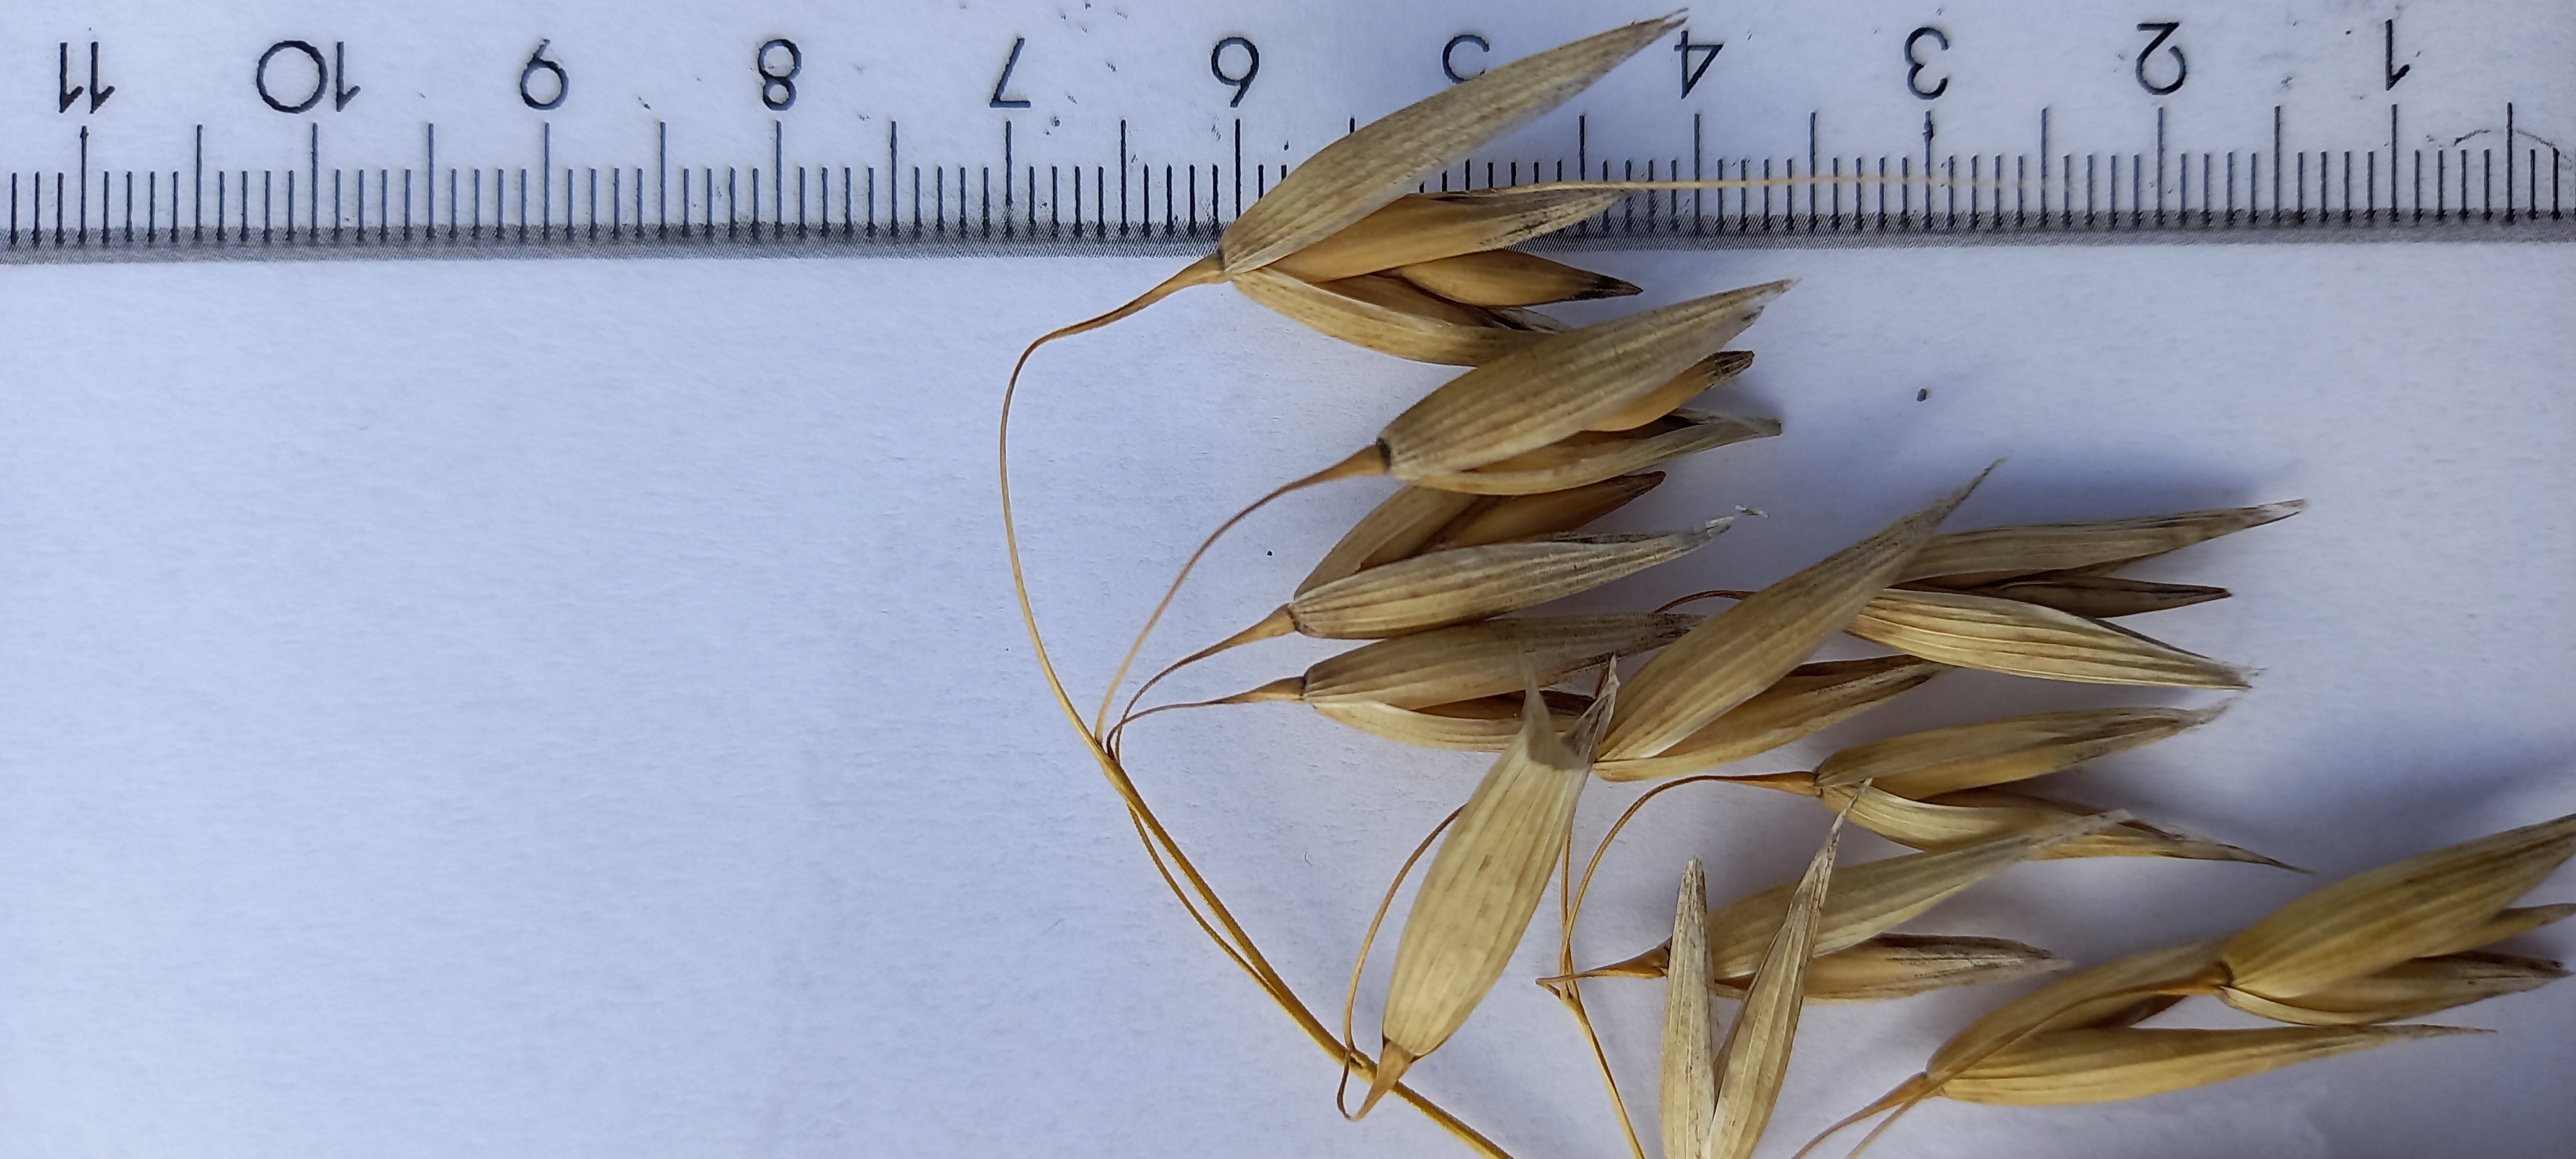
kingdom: Plantae
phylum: Tracheophyta
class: Liliopsida
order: Poales
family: Poaceae
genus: Avena
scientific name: Avena sativa
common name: Oat
